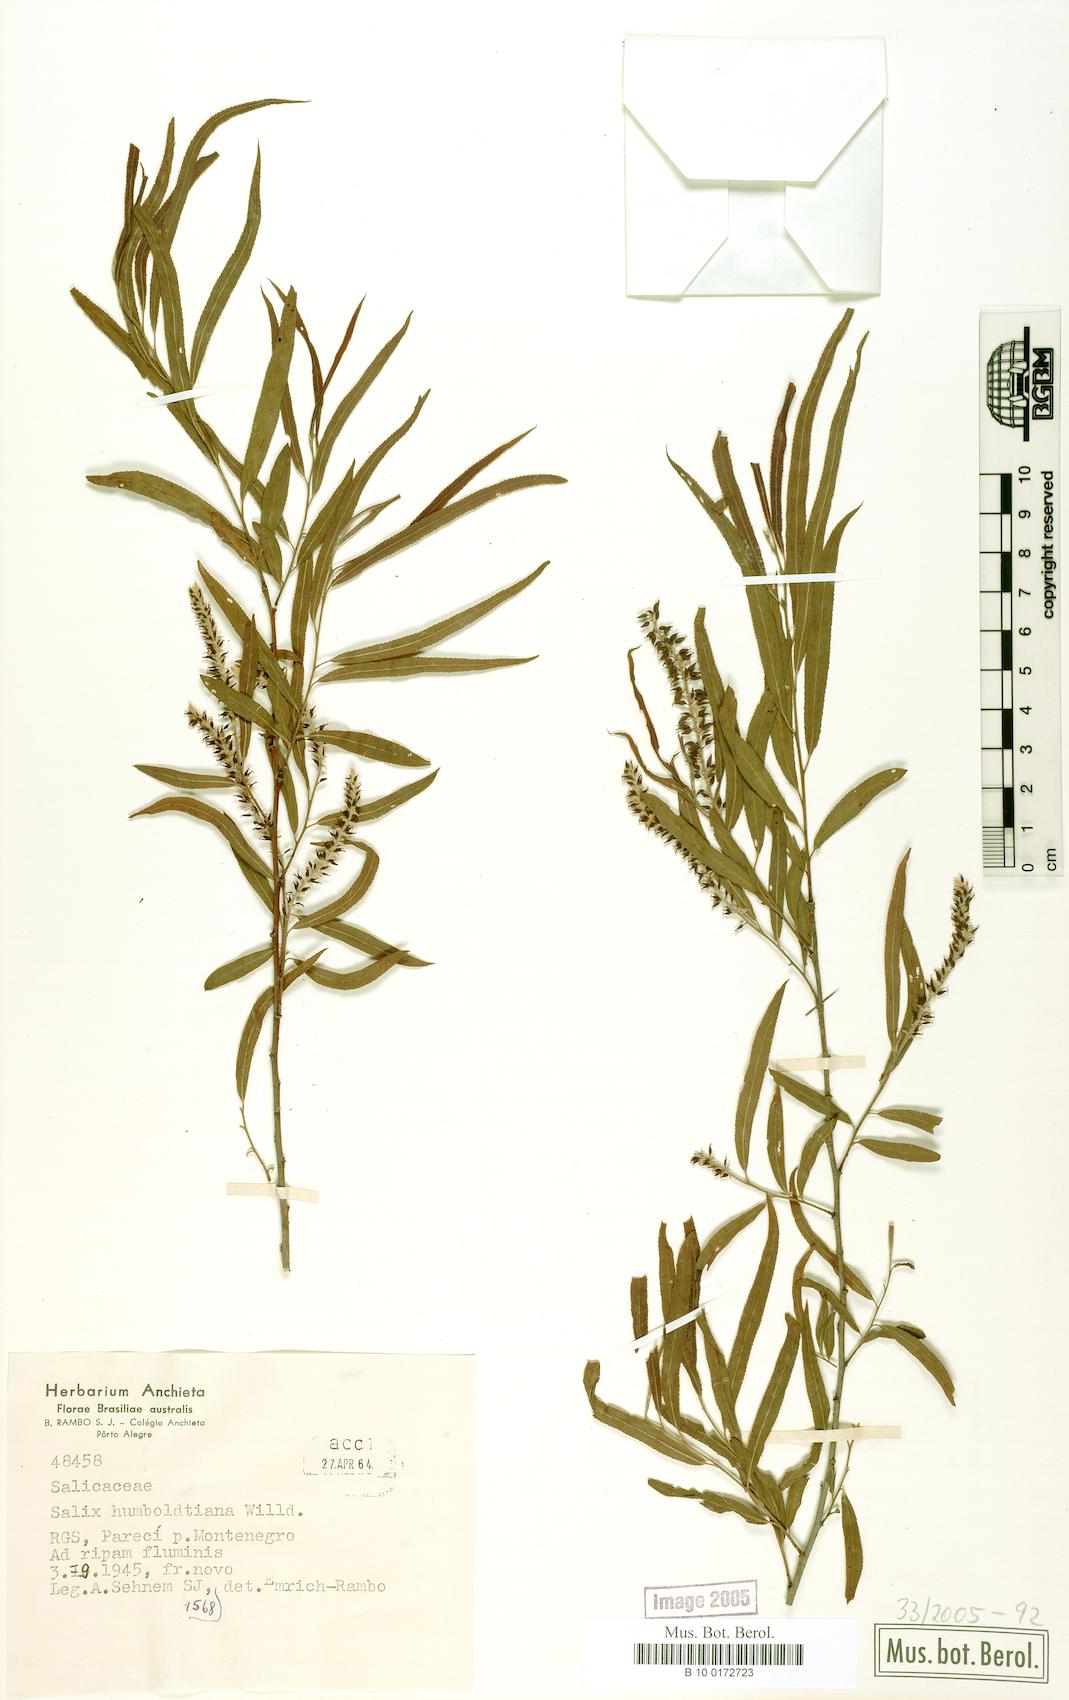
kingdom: Plantae
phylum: Tracheophyta
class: Magnoliopsida
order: Malpighiales
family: Salicaceae
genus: Salix
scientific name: Salix humboldtiana
